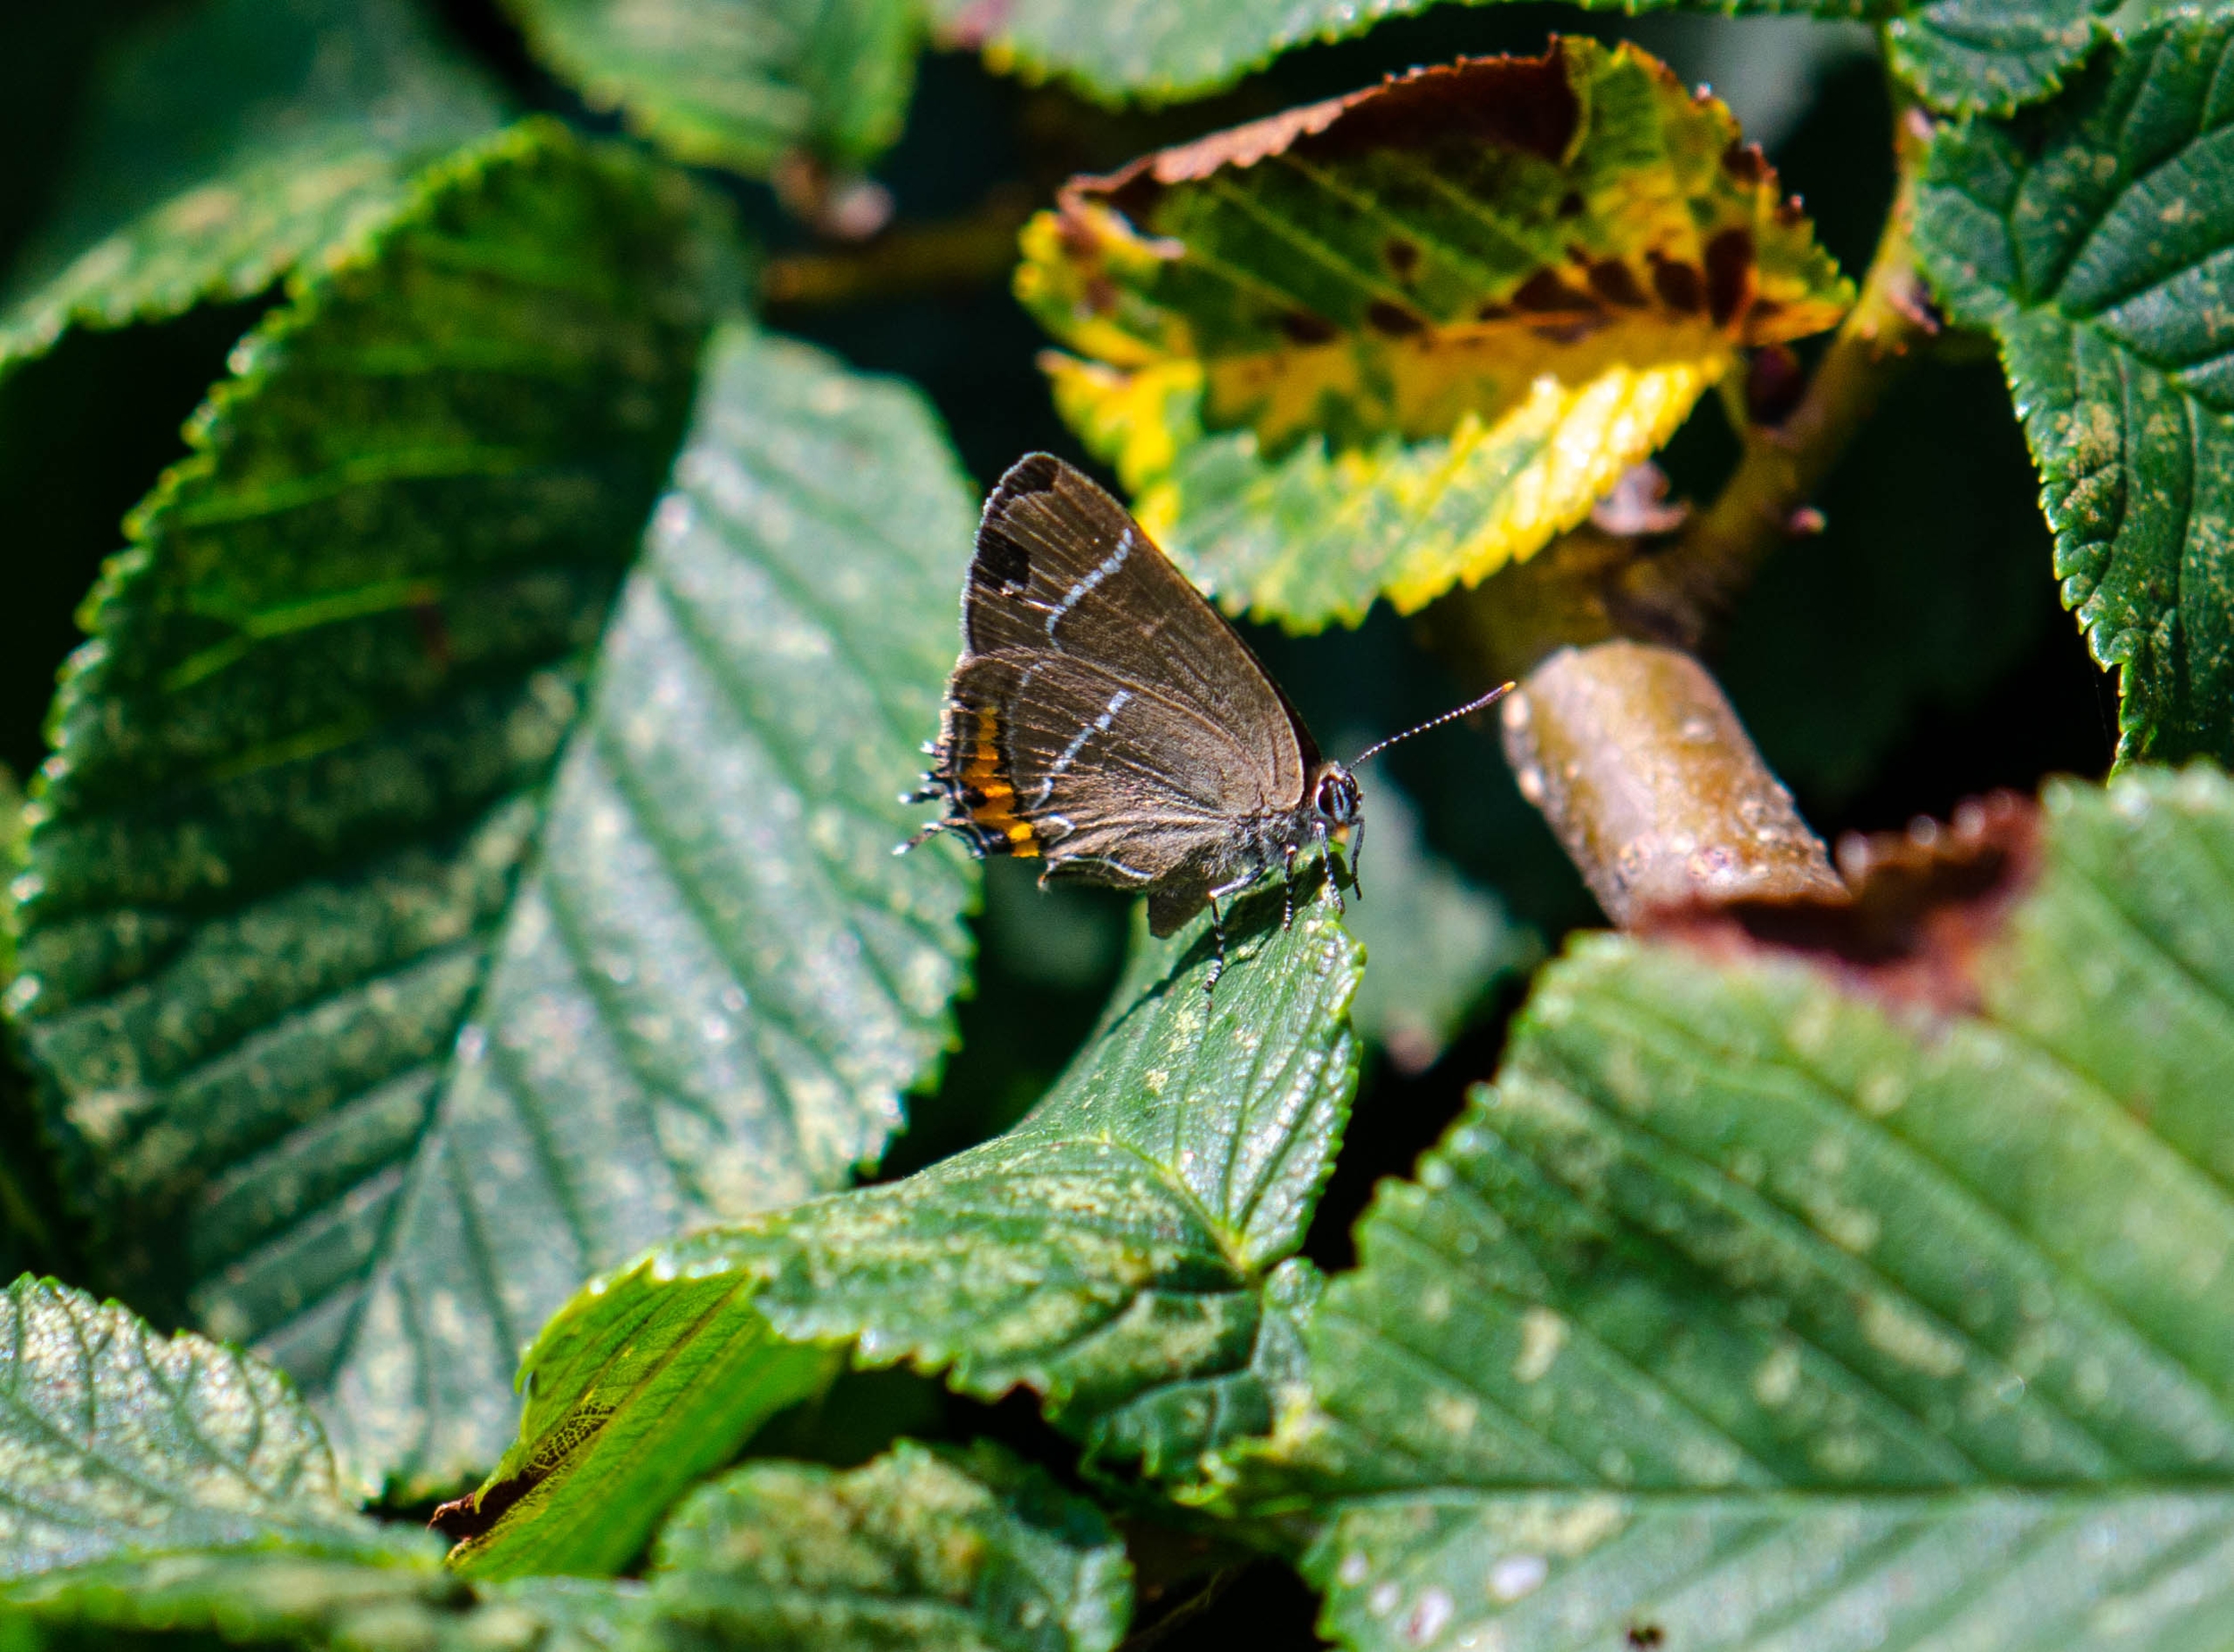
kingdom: Animalia
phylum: Arthropoda
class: Insecta
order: Lepidoptera
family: Lycaenidae
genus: Satyrium
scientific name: Satyrium w-album
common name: Det hvide W
